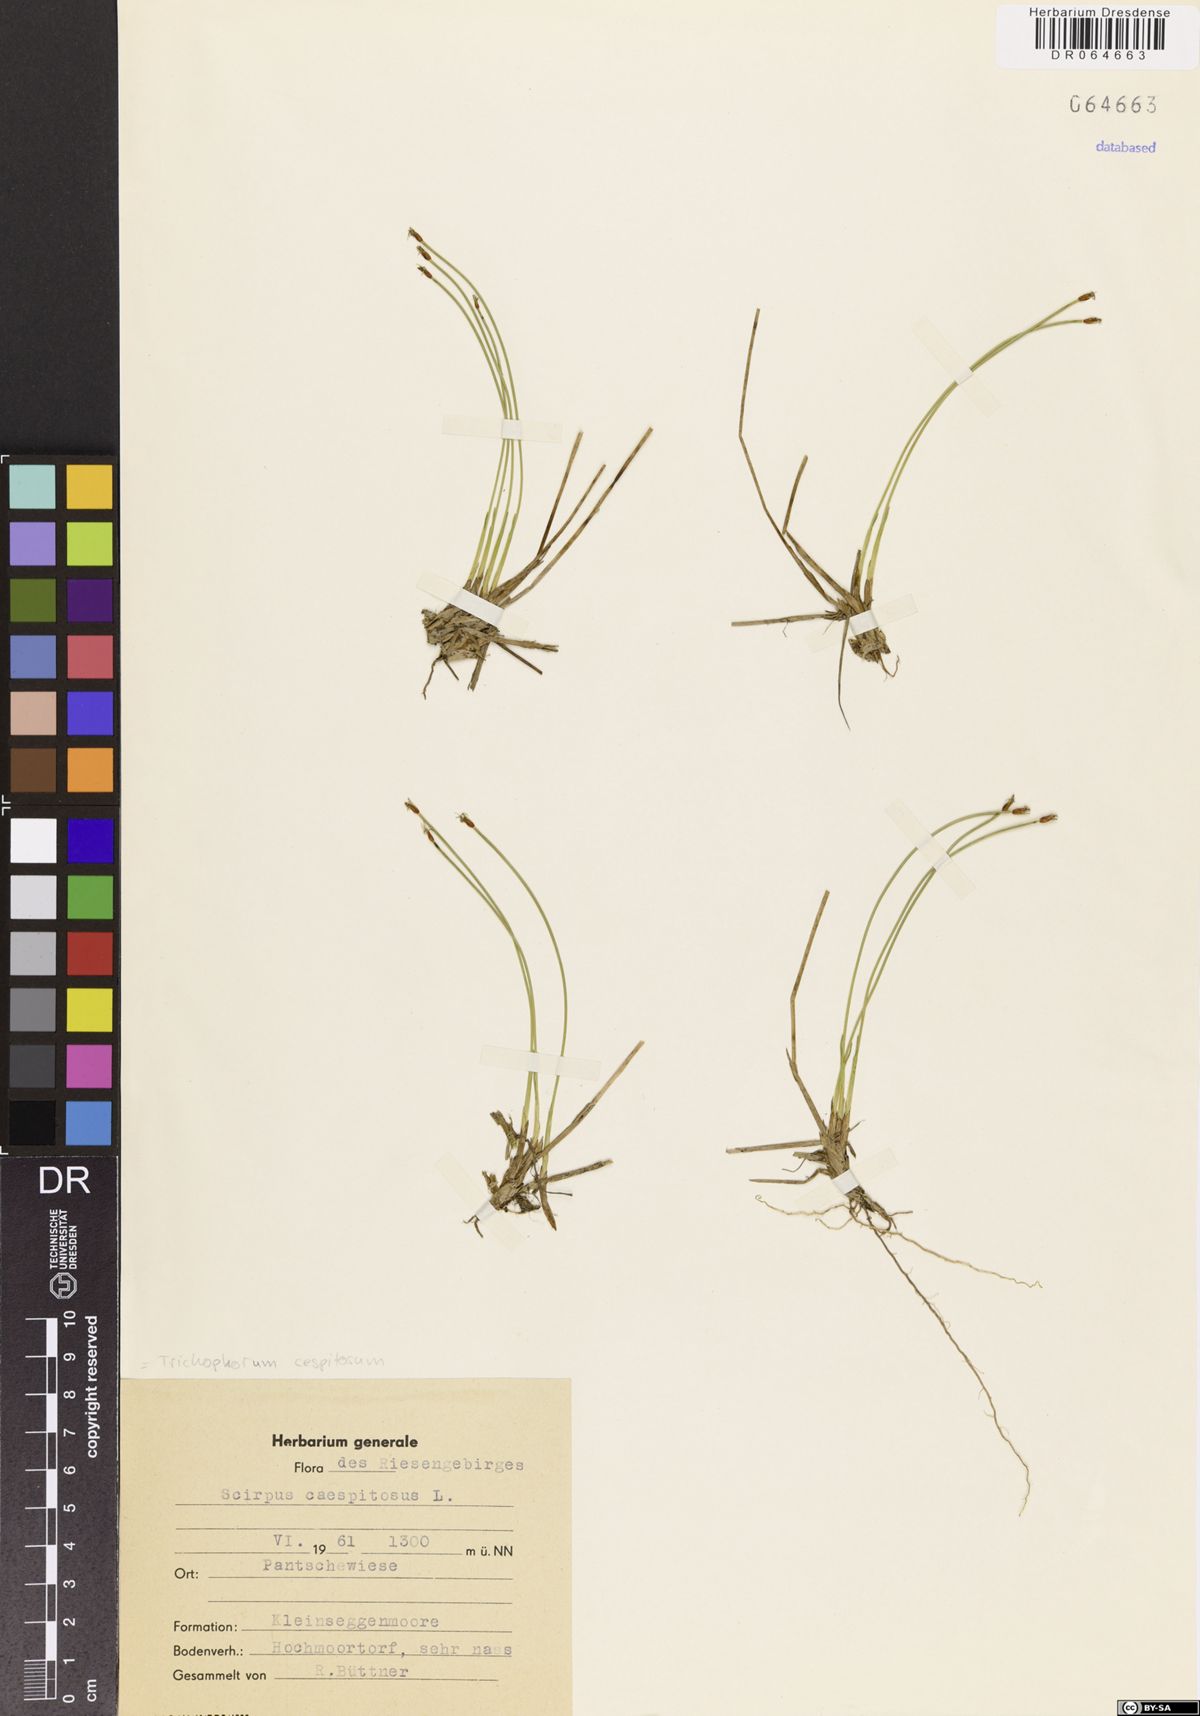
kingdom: Plantae
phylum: Tracheophyta
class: Liliopsida
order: Poales
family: Cyperaceae
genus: Trichophorum
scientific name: Trichophorum cespitosum
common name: Cespitose bulrush
